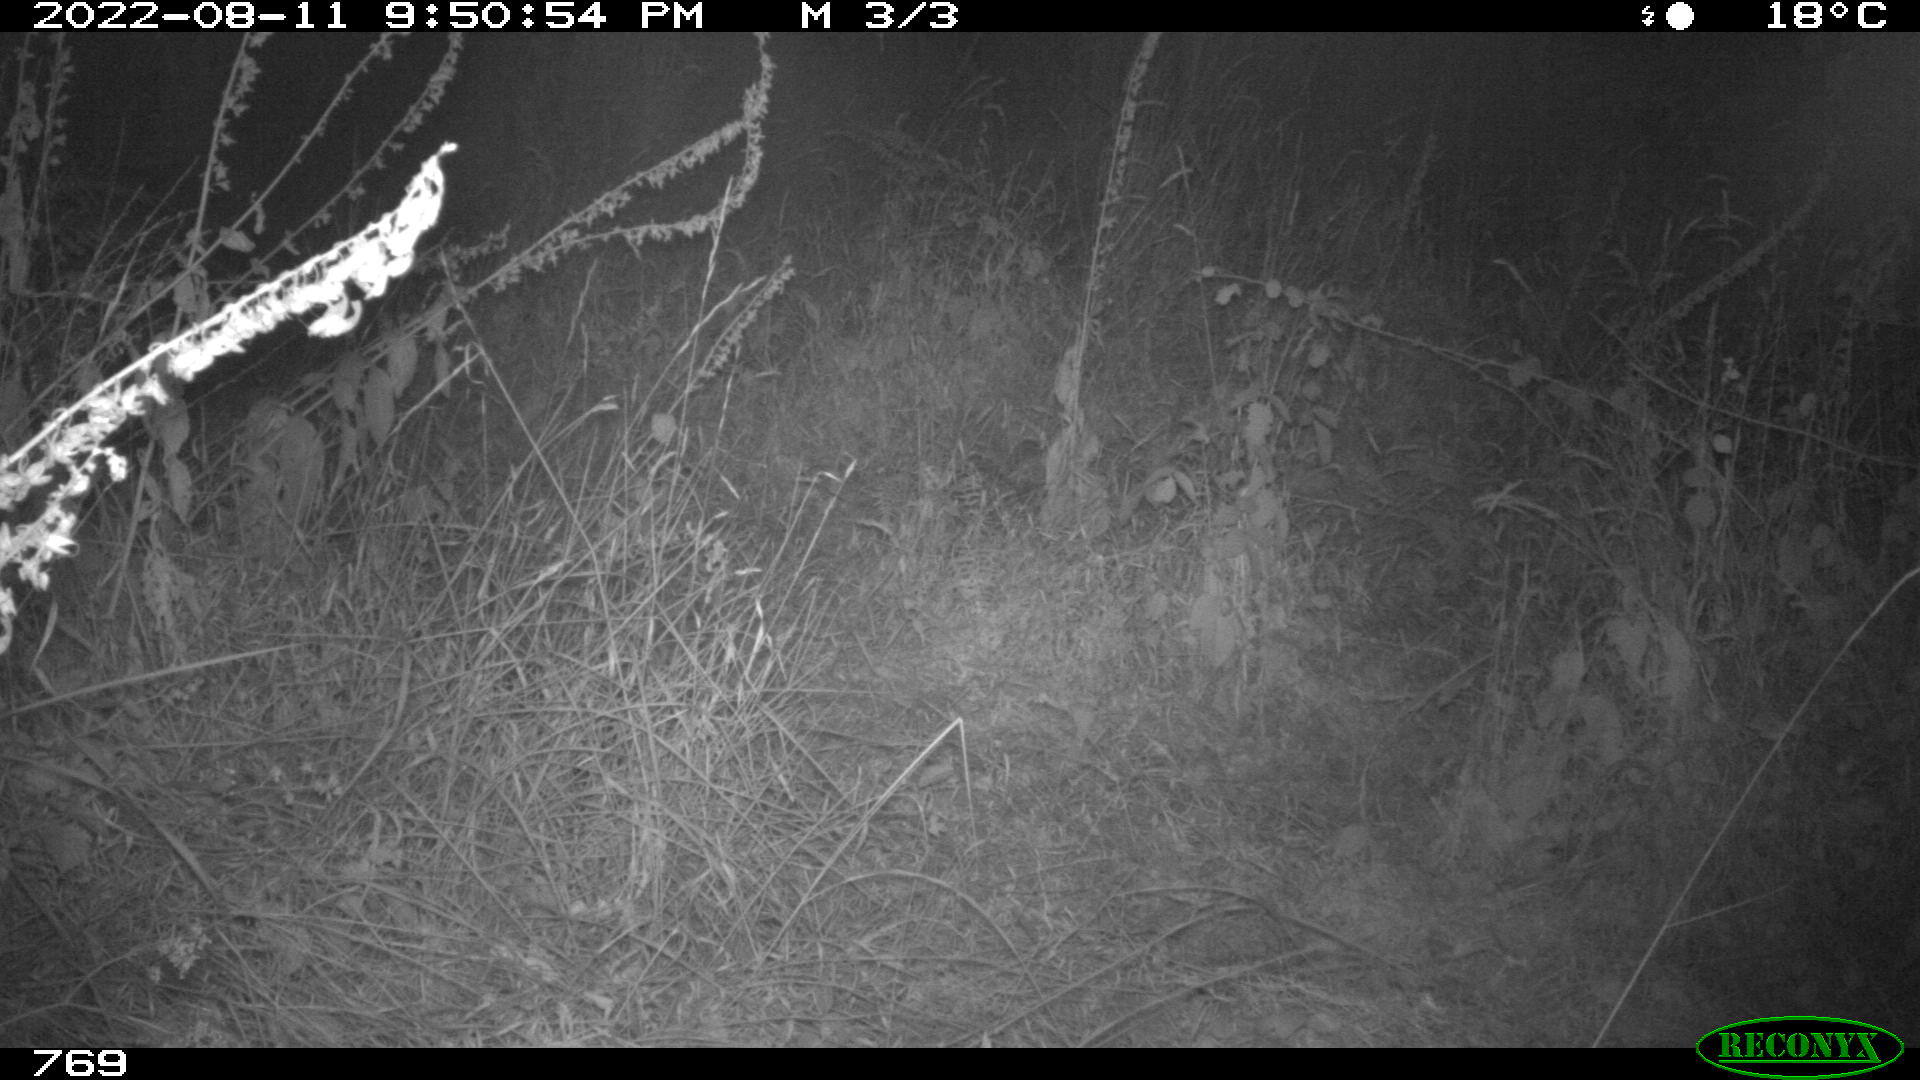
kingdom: Animalia
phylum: Chordata
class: Mammalia
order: Artiodactyla
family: Cervidae
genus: Capreolus
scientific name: Capreolus capreolus
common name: Western roe deer
